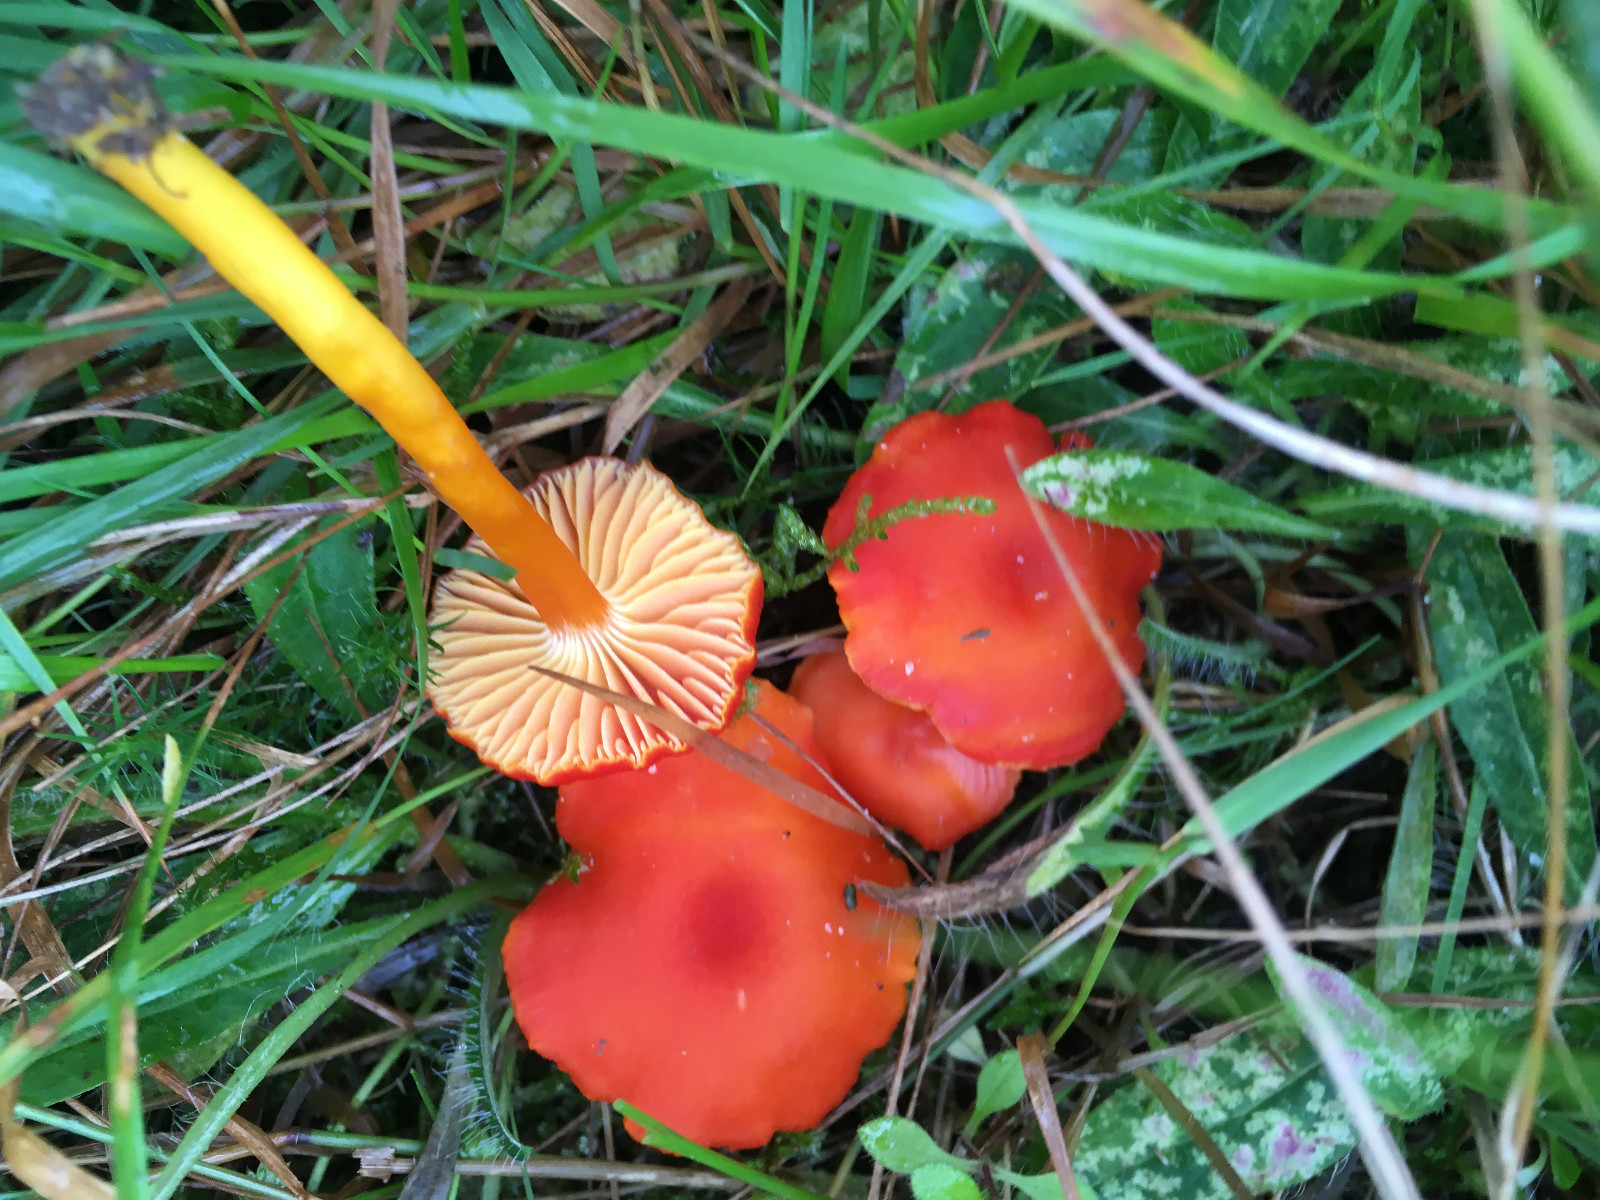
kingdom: Fungi
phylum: Basidiomycota
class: Agaricomycetes
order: Agaricales
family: Hygrophoraceae
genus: Hygrocybe
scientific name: Hygrocybe coccinea
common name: cinnober-vokshat
